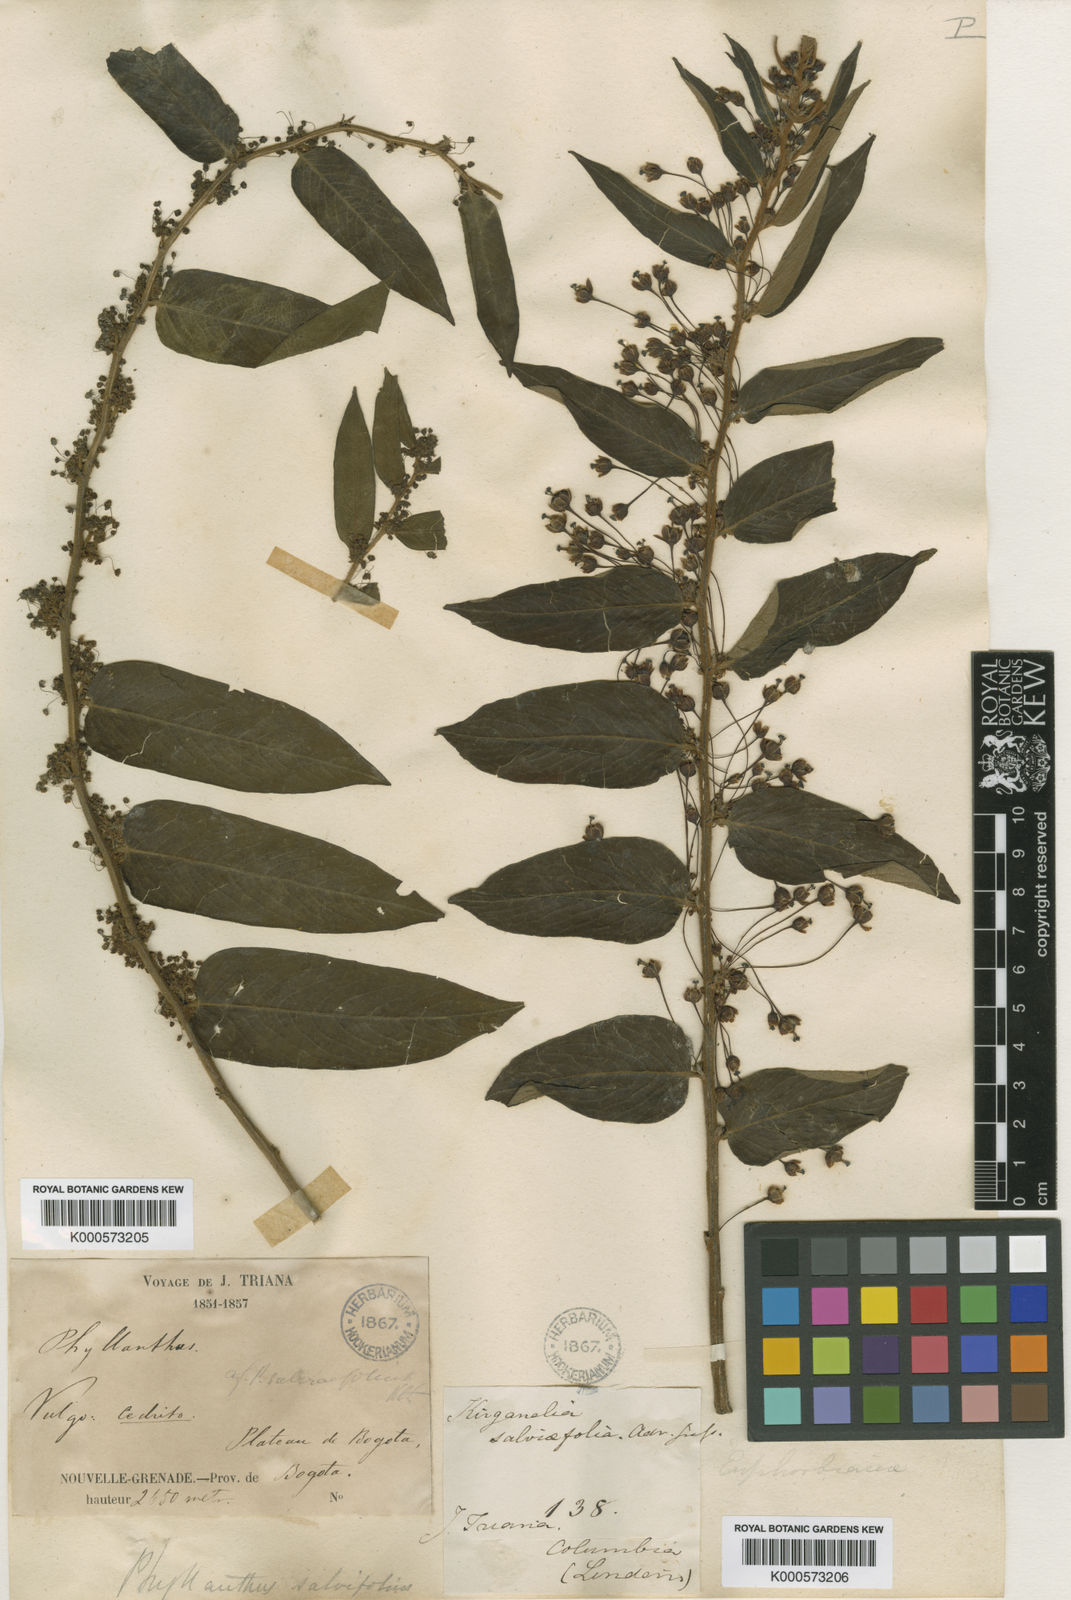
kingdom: Plantae
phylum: Tracheophyta
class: Magnoliopsida
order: Malpighiales
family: Phyllanthaceae
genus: Phyllanthus
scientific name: Phyllanthus salviifolius
